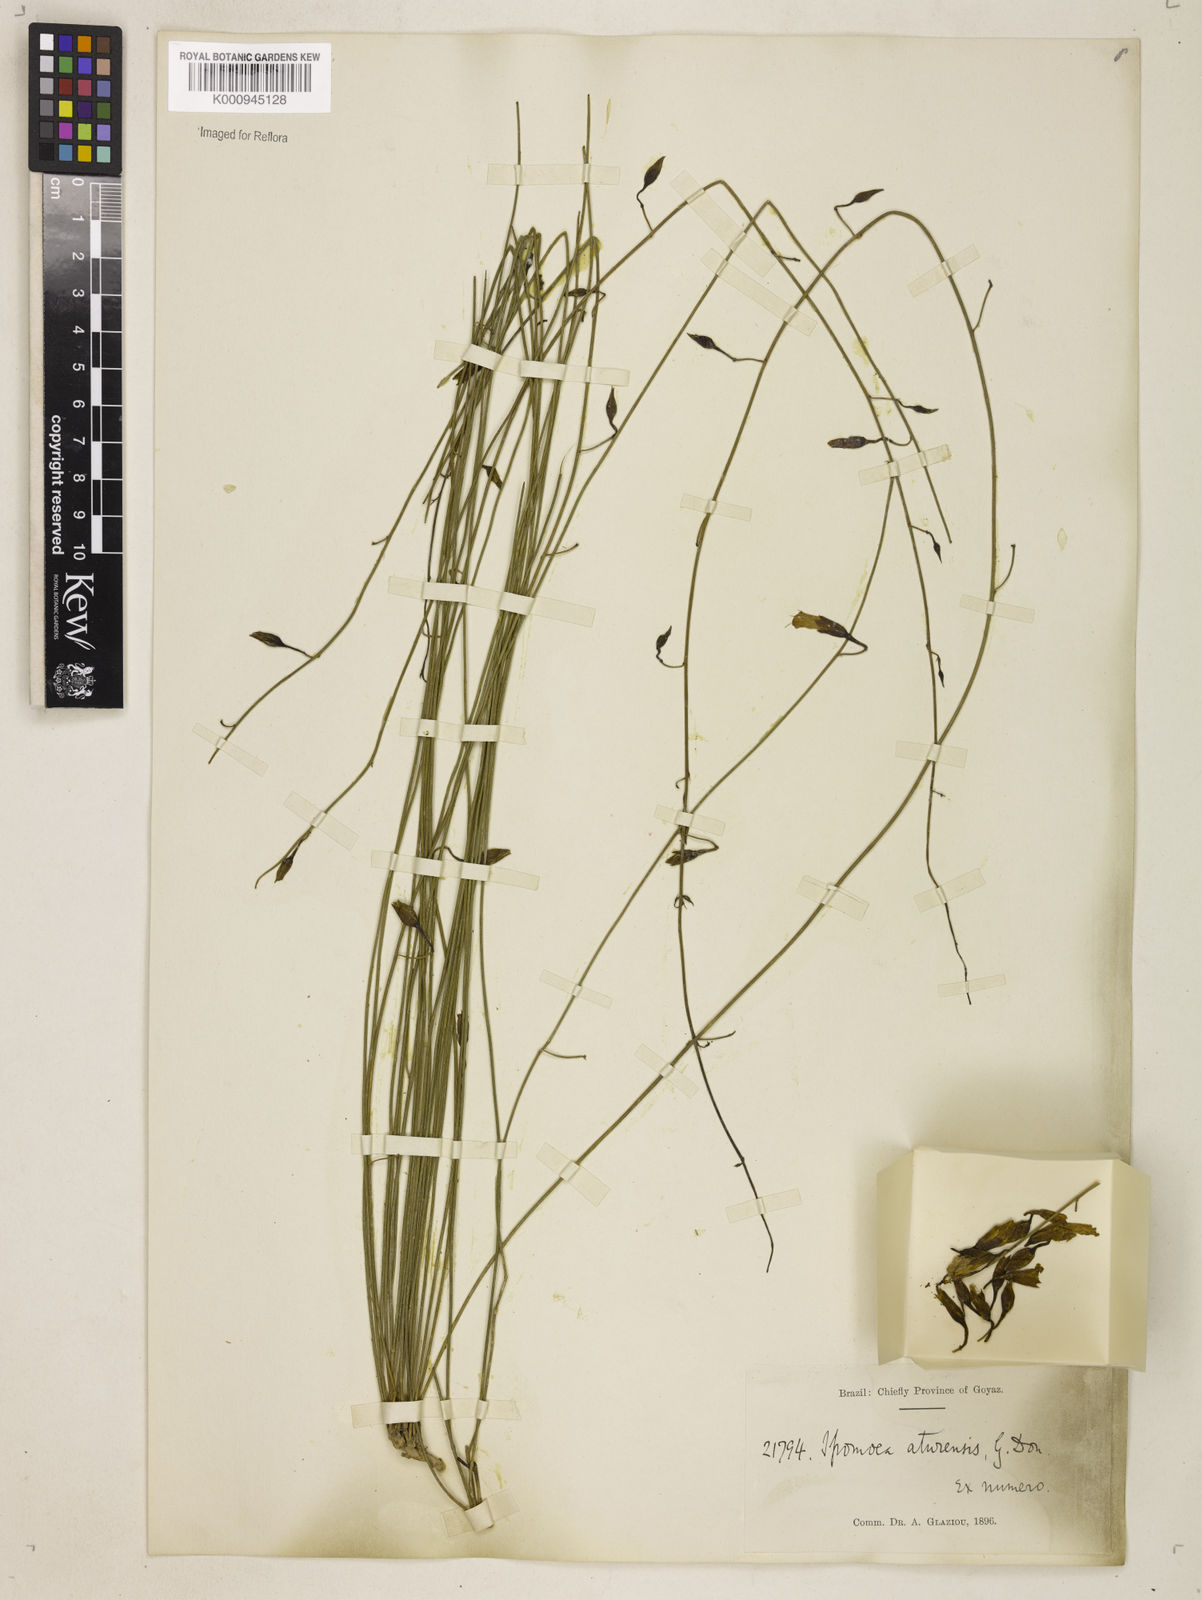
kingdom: Plantae
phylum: Tracheophyta
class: Magnoliopsida
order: Solanales
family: Convolvulaceae
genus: Distimake
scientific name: Distimake aturensis
